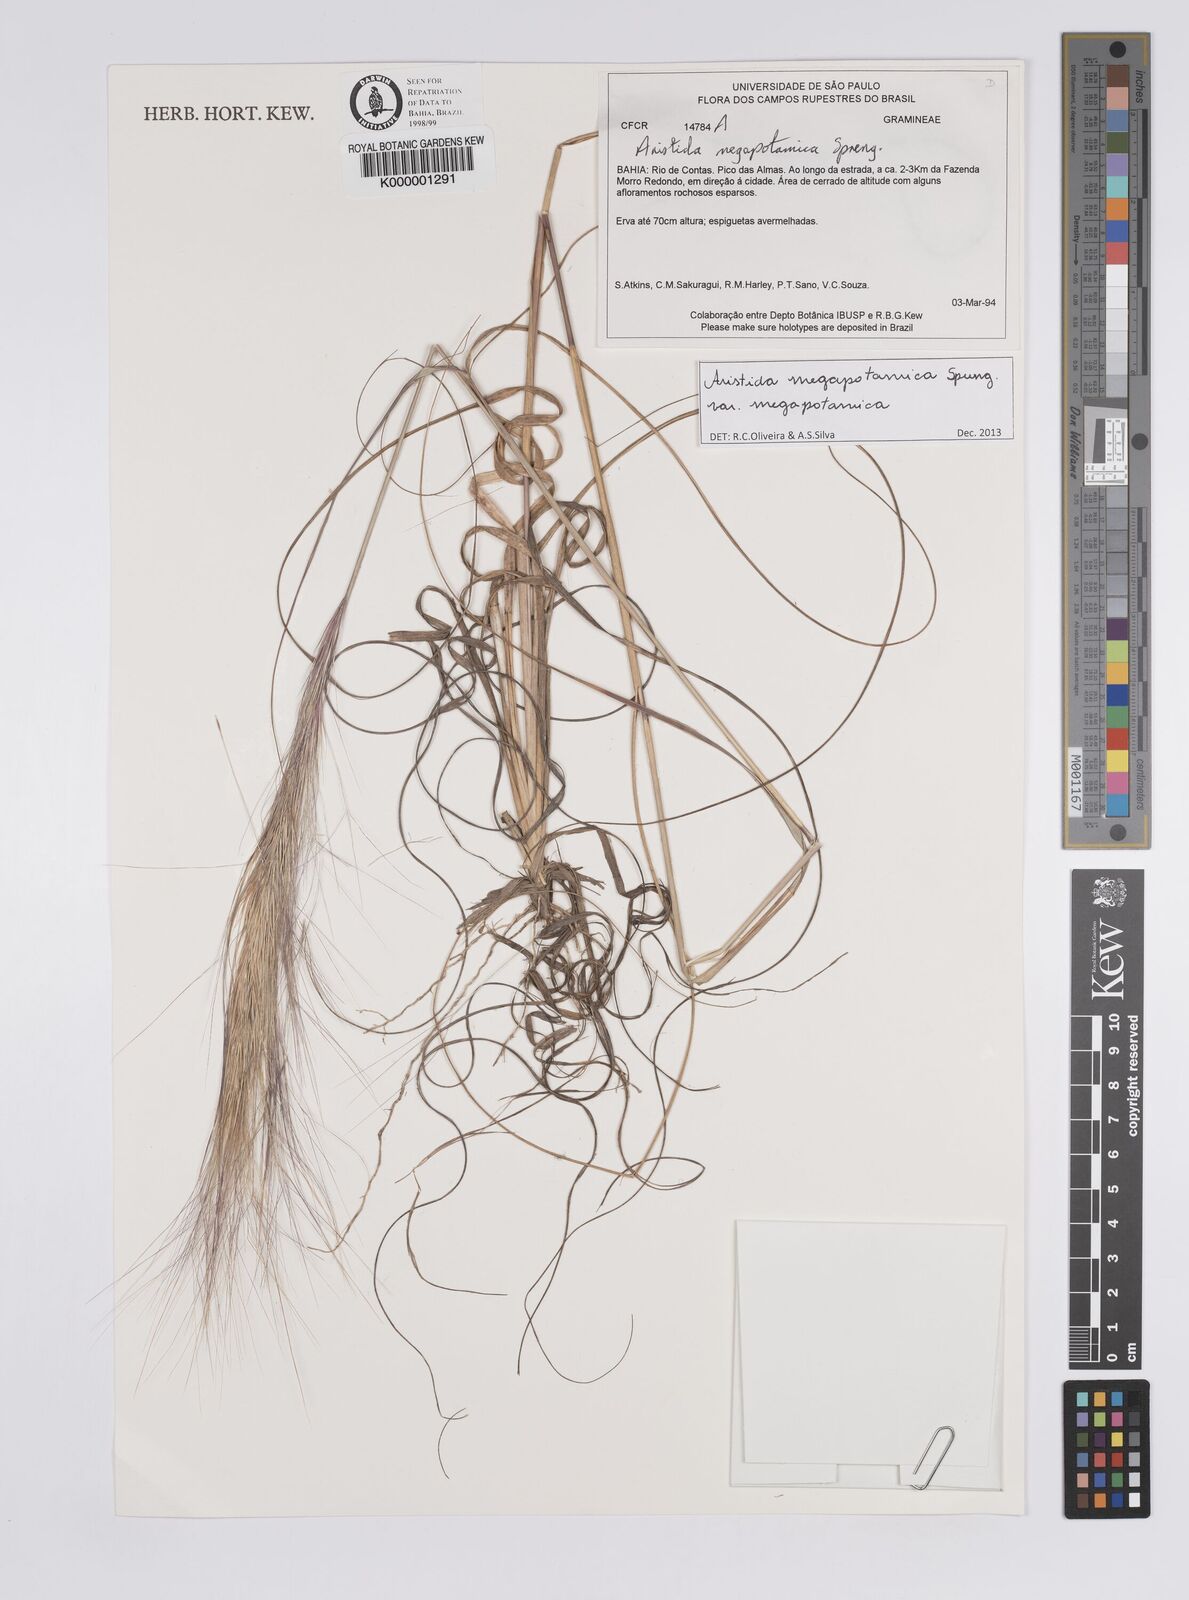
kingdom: Plantae
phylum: Tracheophyta
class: Liliopsida
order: Poales
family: Poaceae
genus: Aristida
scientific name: Aristida megapotamica
